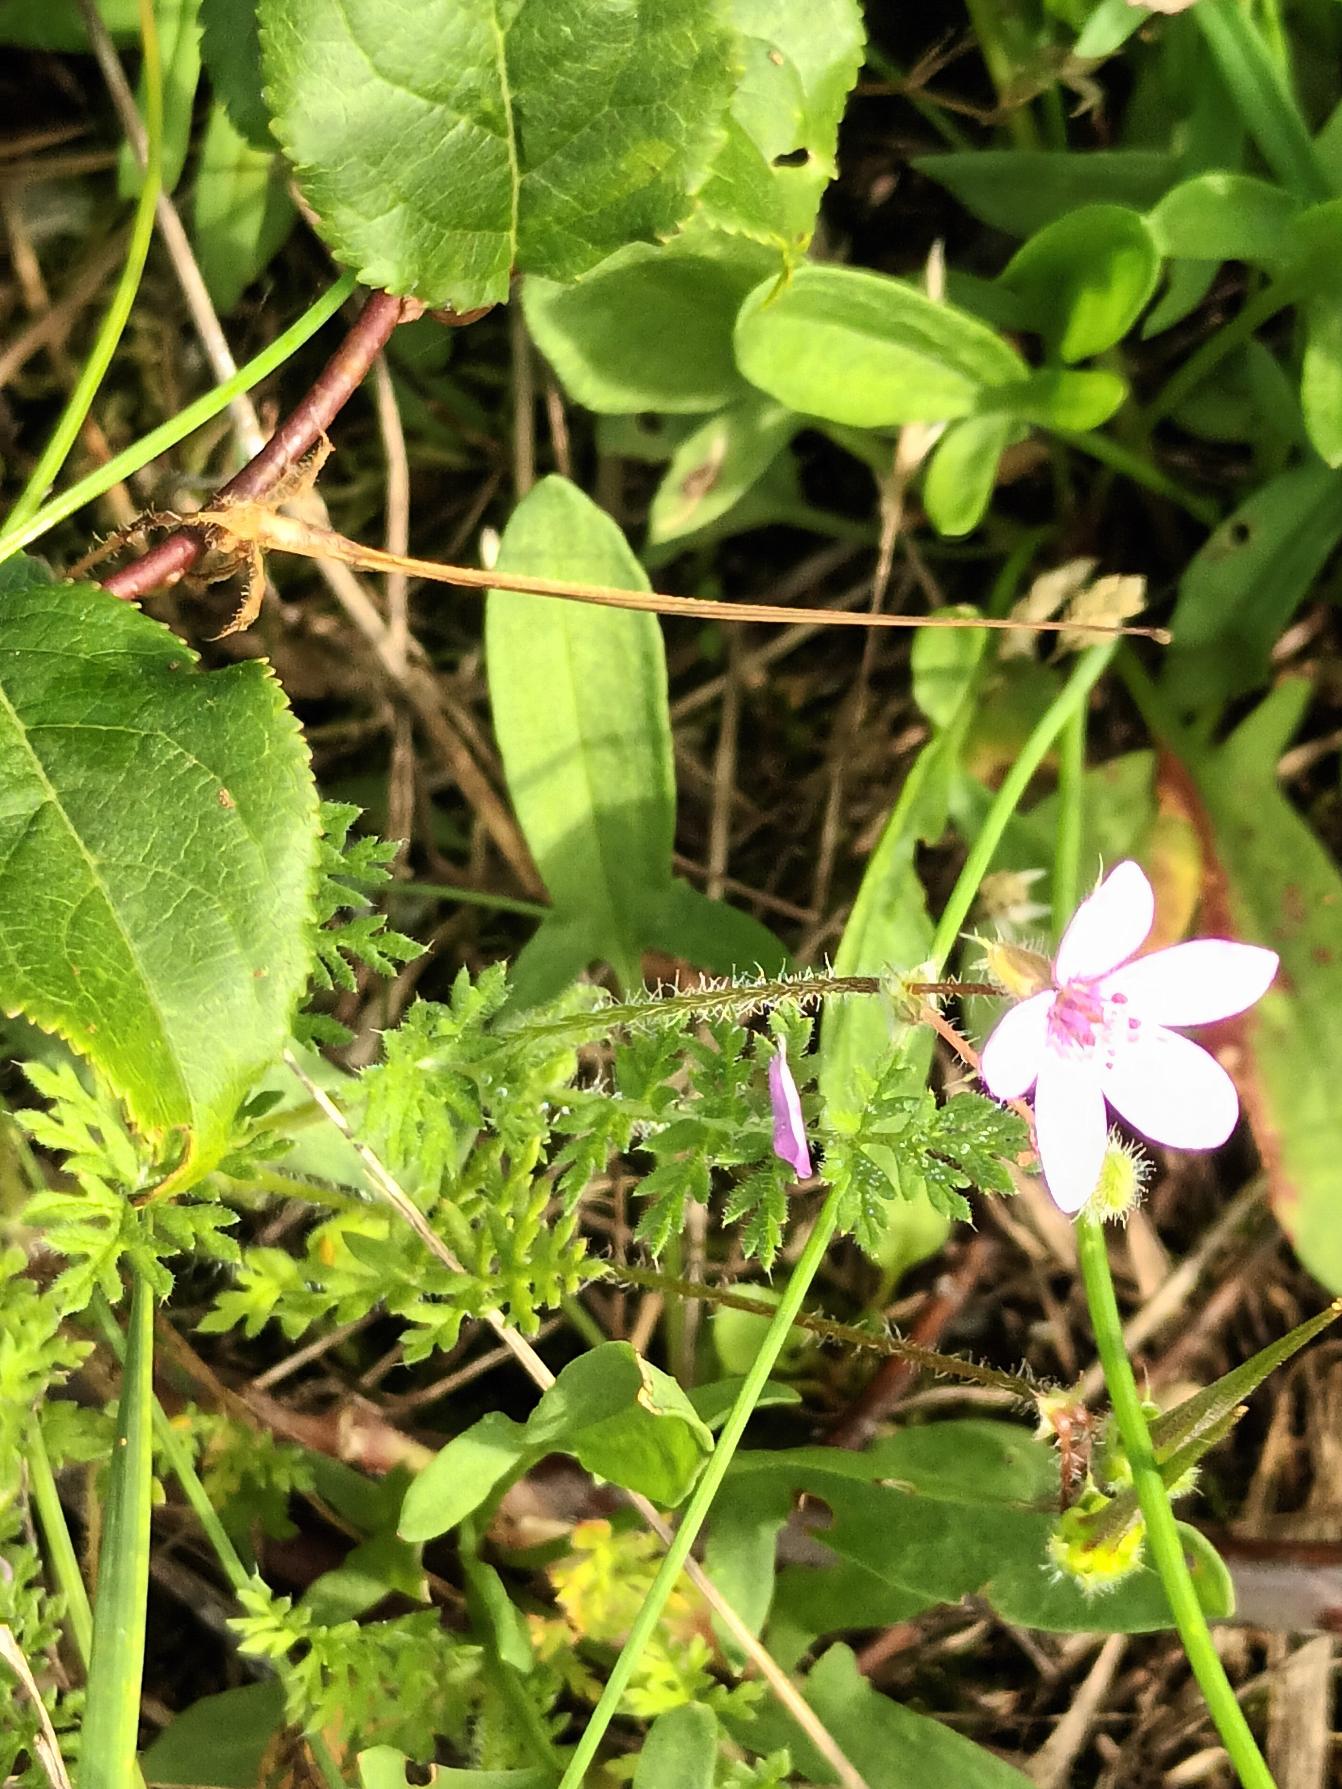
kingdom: Plantae
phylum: Tracheophyta
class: Magnoliopsida
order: Geraniales
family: Geraniaceae
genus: Erodium
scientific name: Erodium cicutarium
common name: Hejrenæb
